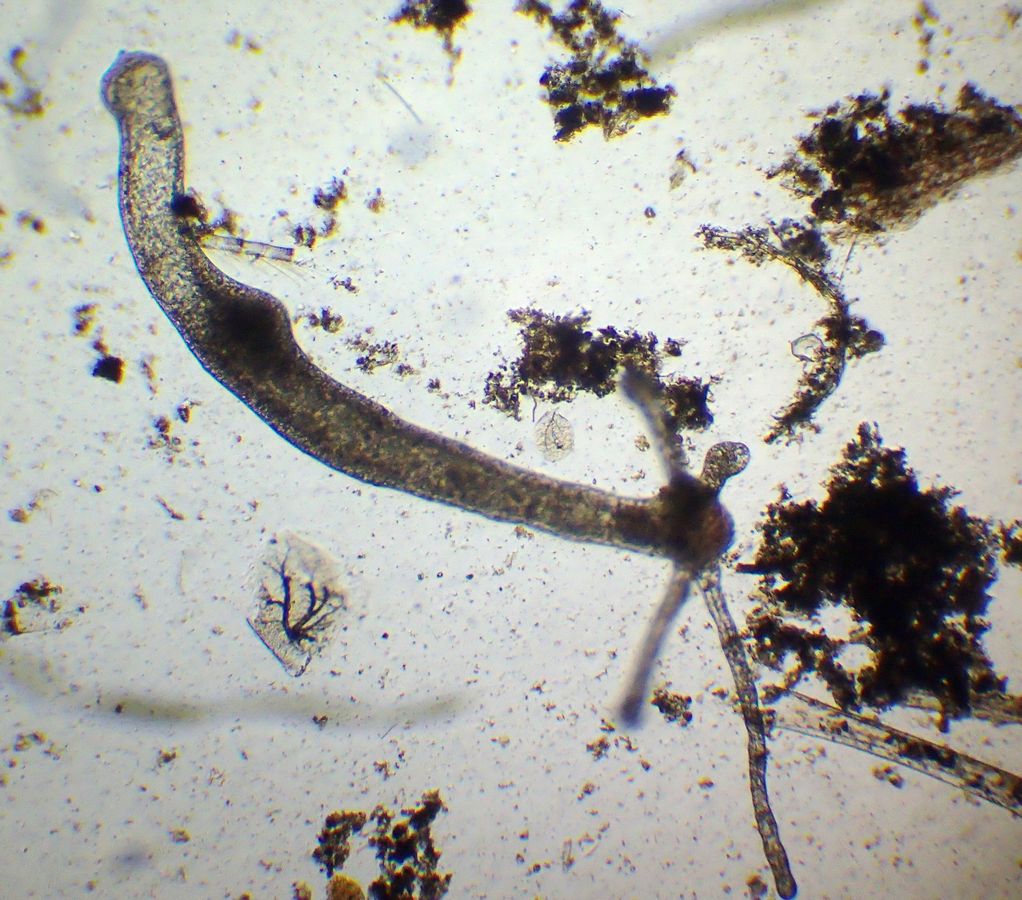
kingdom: Animalia
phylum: Cnidaria
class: Hydrozoa
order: Anthoathecata
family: Hydridae
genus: Hydra
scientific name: Hydra
